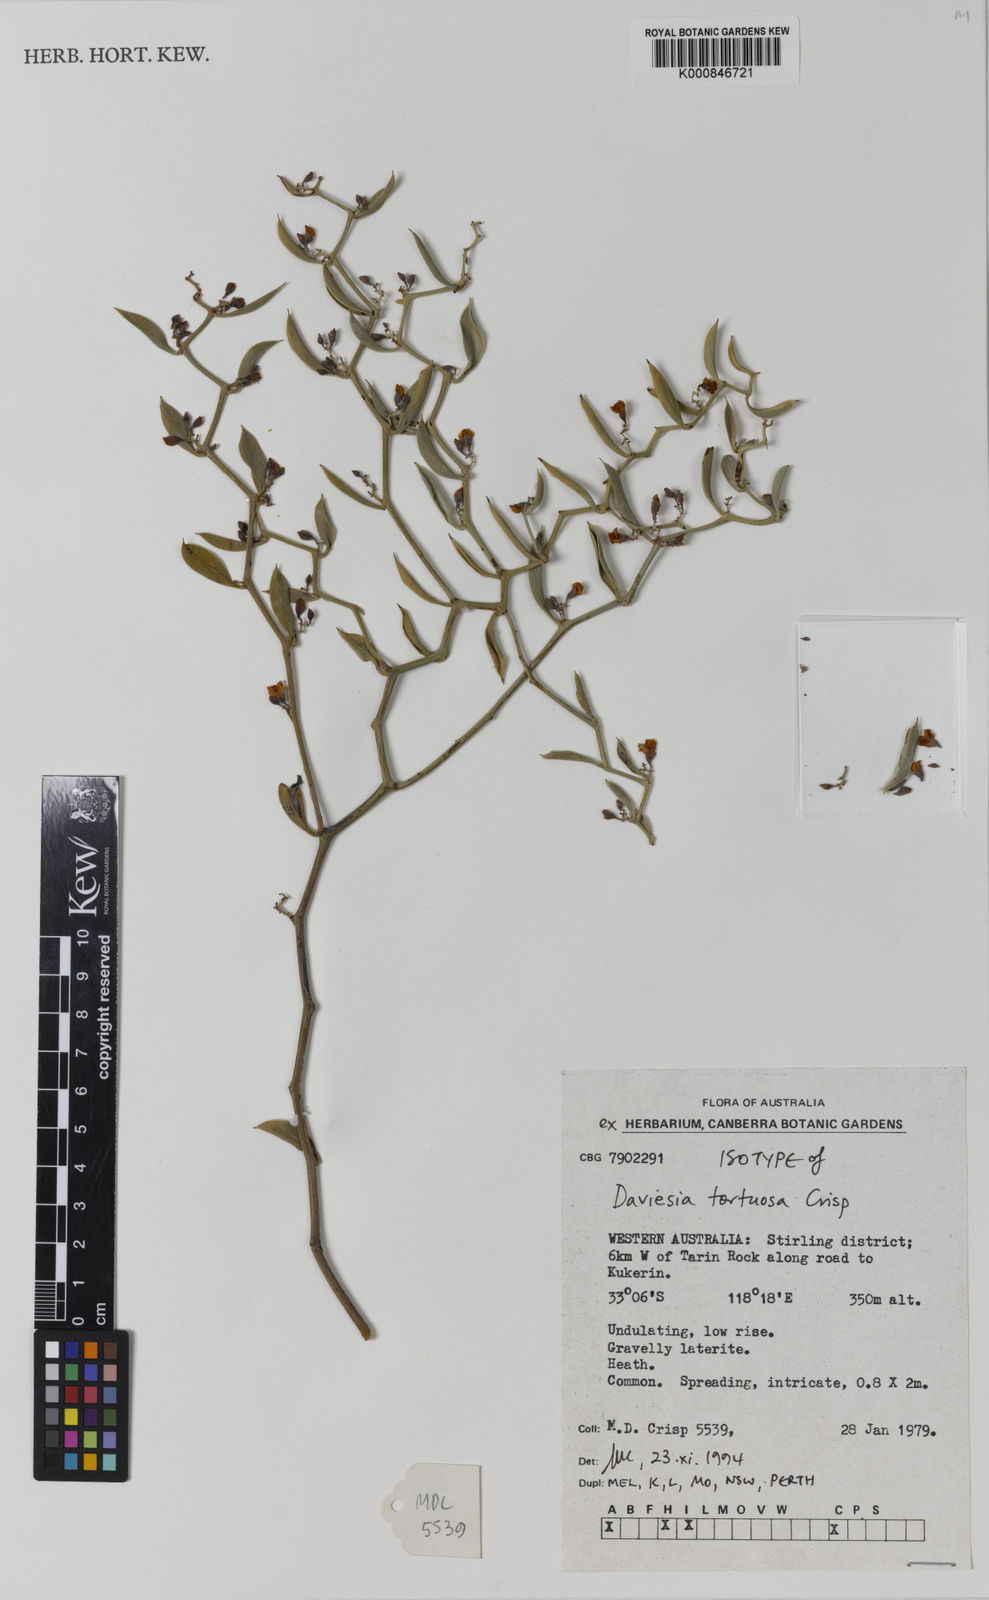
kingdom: Plantae
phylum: Tracheophyta
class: Magnoliopsida
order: Fabales
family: Fabaceae
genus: Daviesia
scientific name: Daviesia tortuosa
